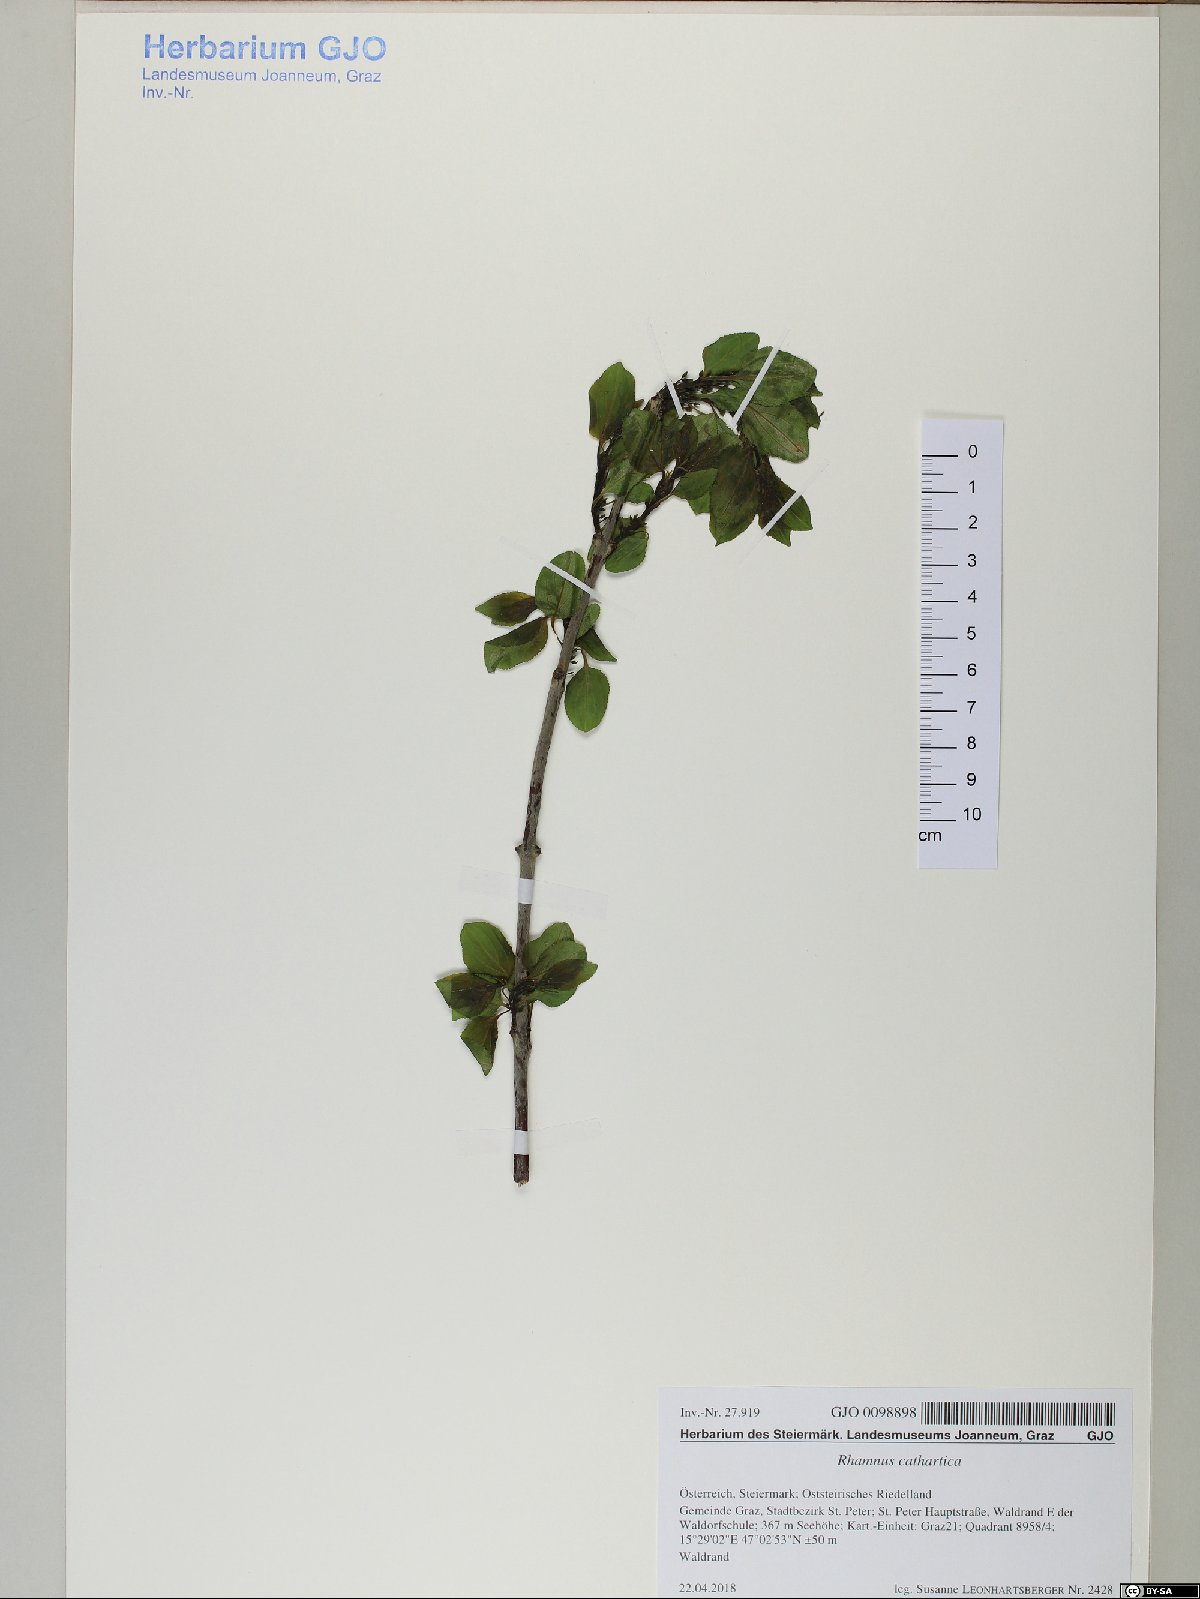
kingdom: Plantae
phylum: Tracheophyta
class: Magnoliopsida
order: Rosales
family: Rhamnaceae
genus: Rhamnus
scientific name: Rhamnus cathartica
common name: Common buckthorn
